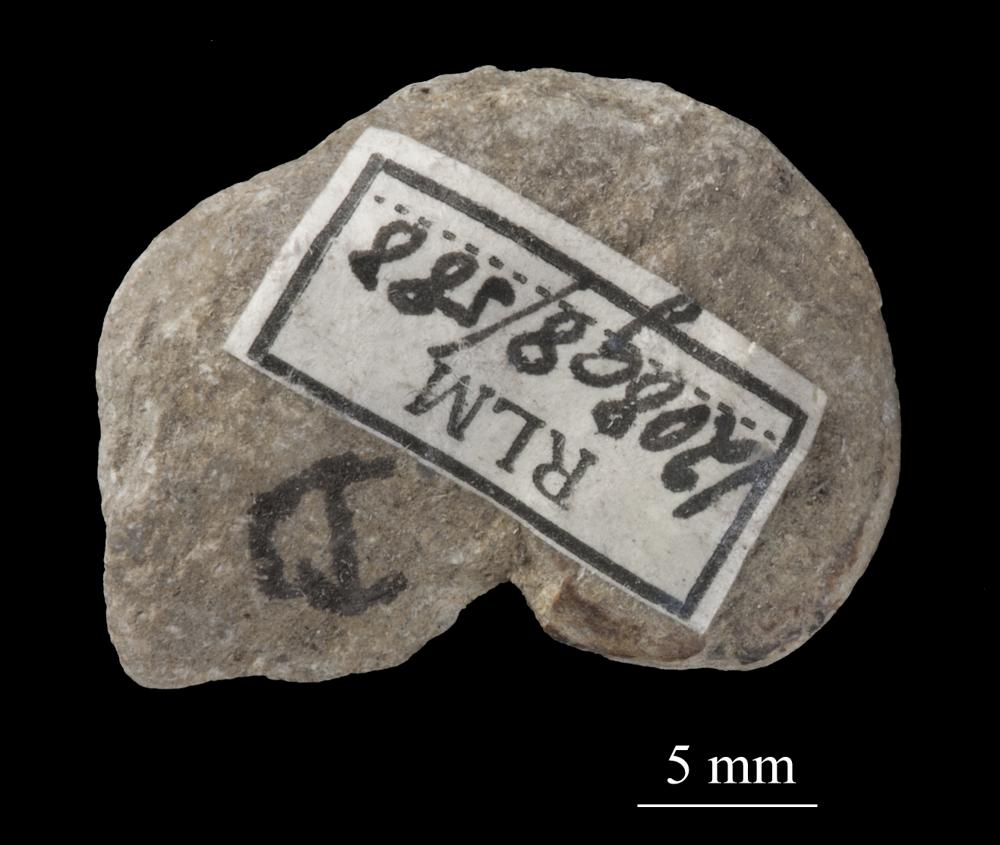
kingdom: Animalia
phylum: Mollusca
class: Gastropoda
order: Pleurotomariida
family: Phymatopleuridae
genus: Worthenia
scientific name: Worthenia
